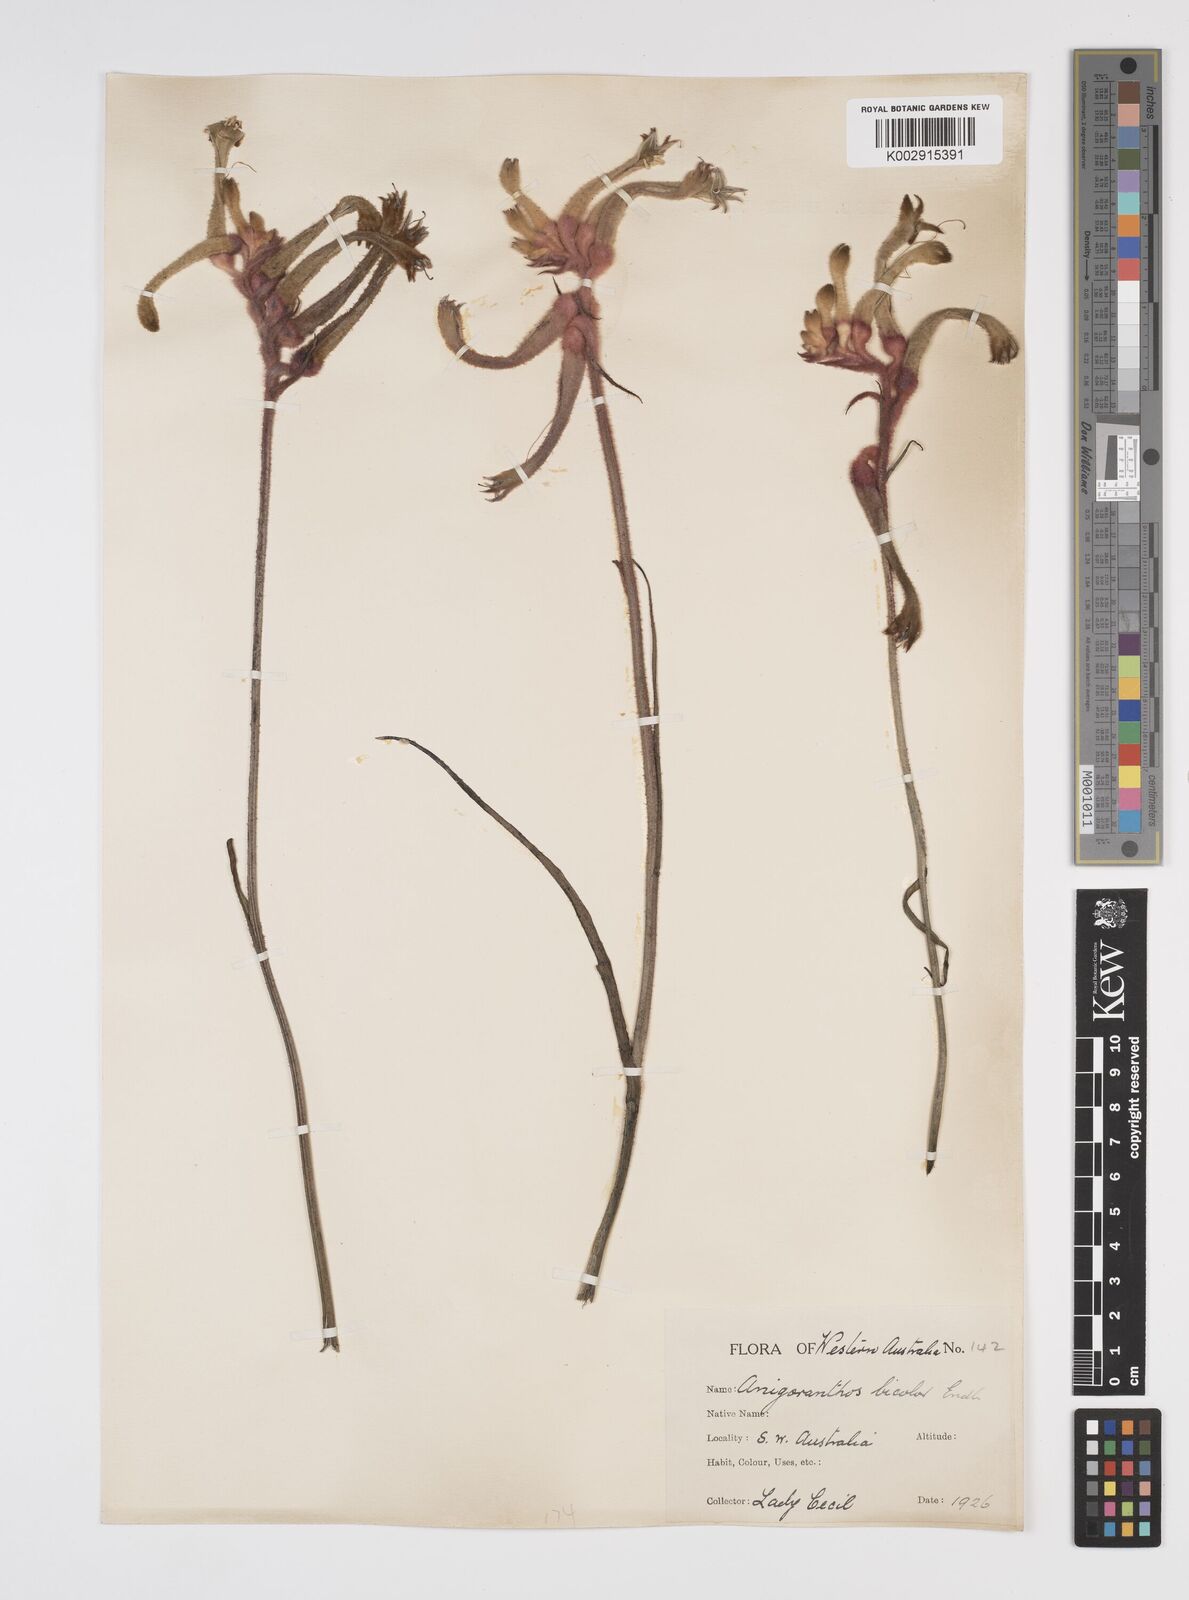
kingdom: Plantae
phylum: Tracheophyta
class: Liliopsida
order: Commelinales
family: Haemodoraceae
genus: Anigozanthos
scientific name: Anigozanthos bicolor
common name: Little kangaroo-paw
